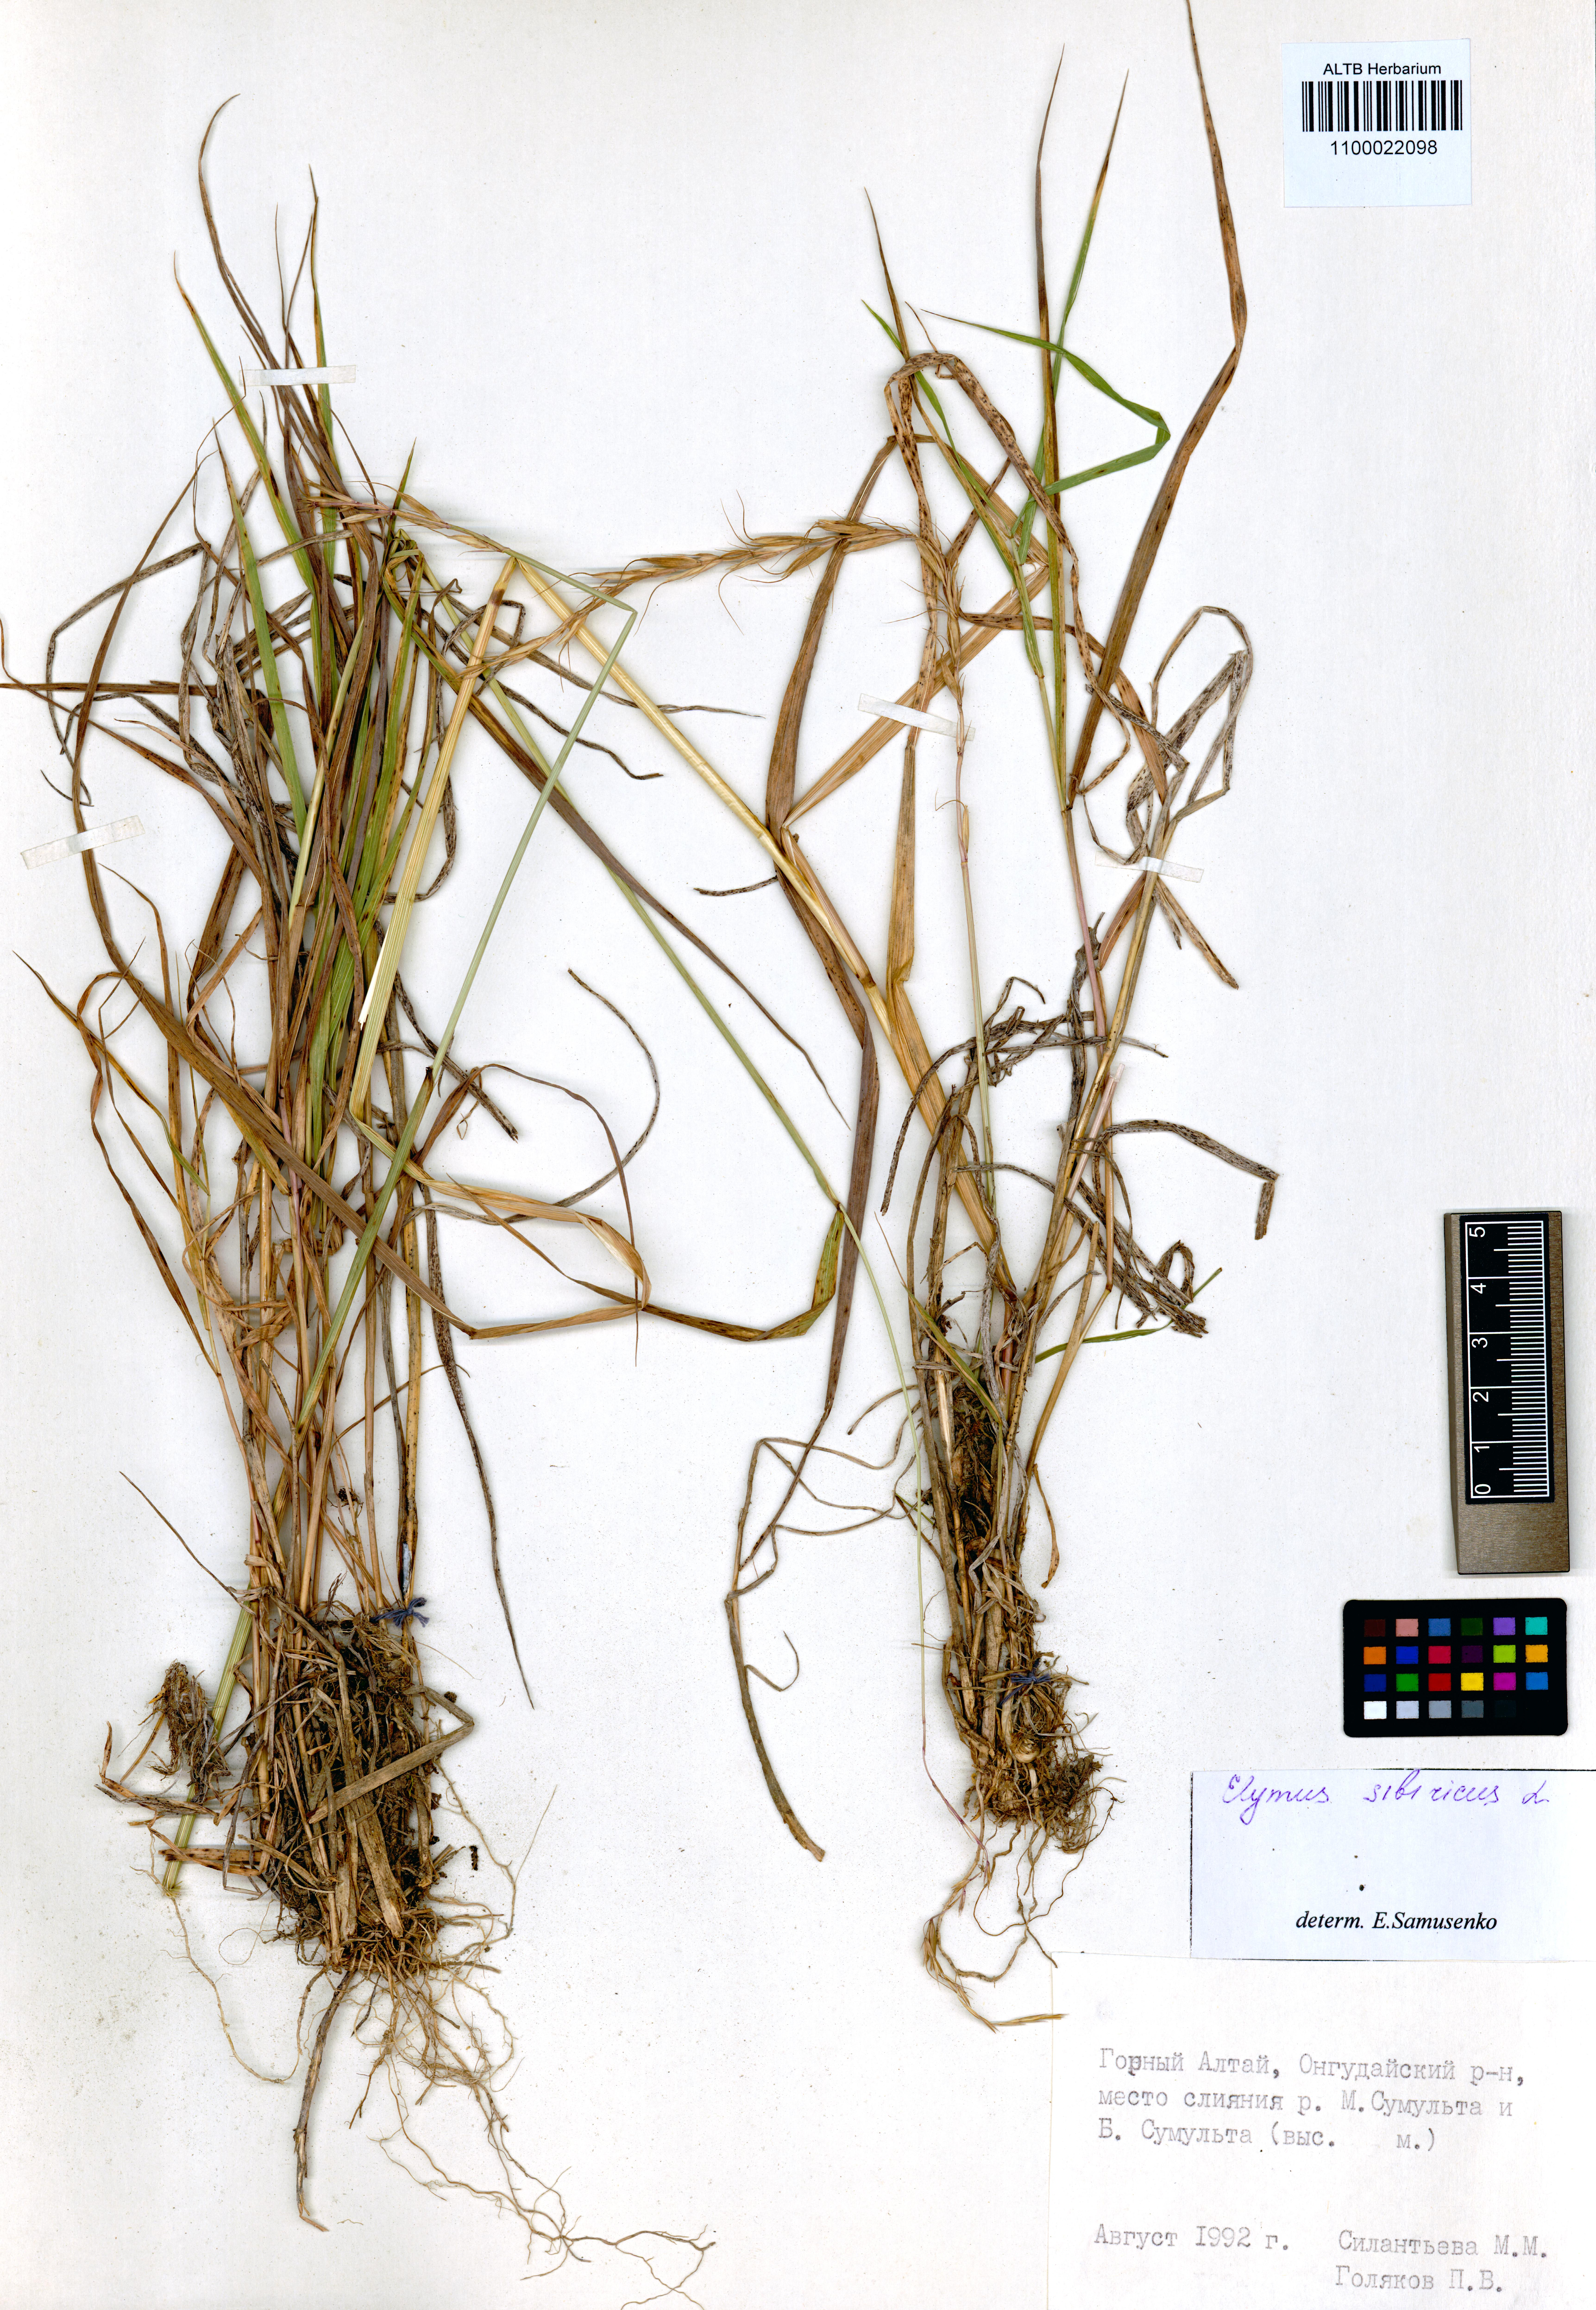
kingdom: Plantae
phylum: Tracheophyta
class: Magnoliopsida
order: Ericales
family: Primulaceae
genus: Primula
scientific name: Primula veris
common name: Cowslip
